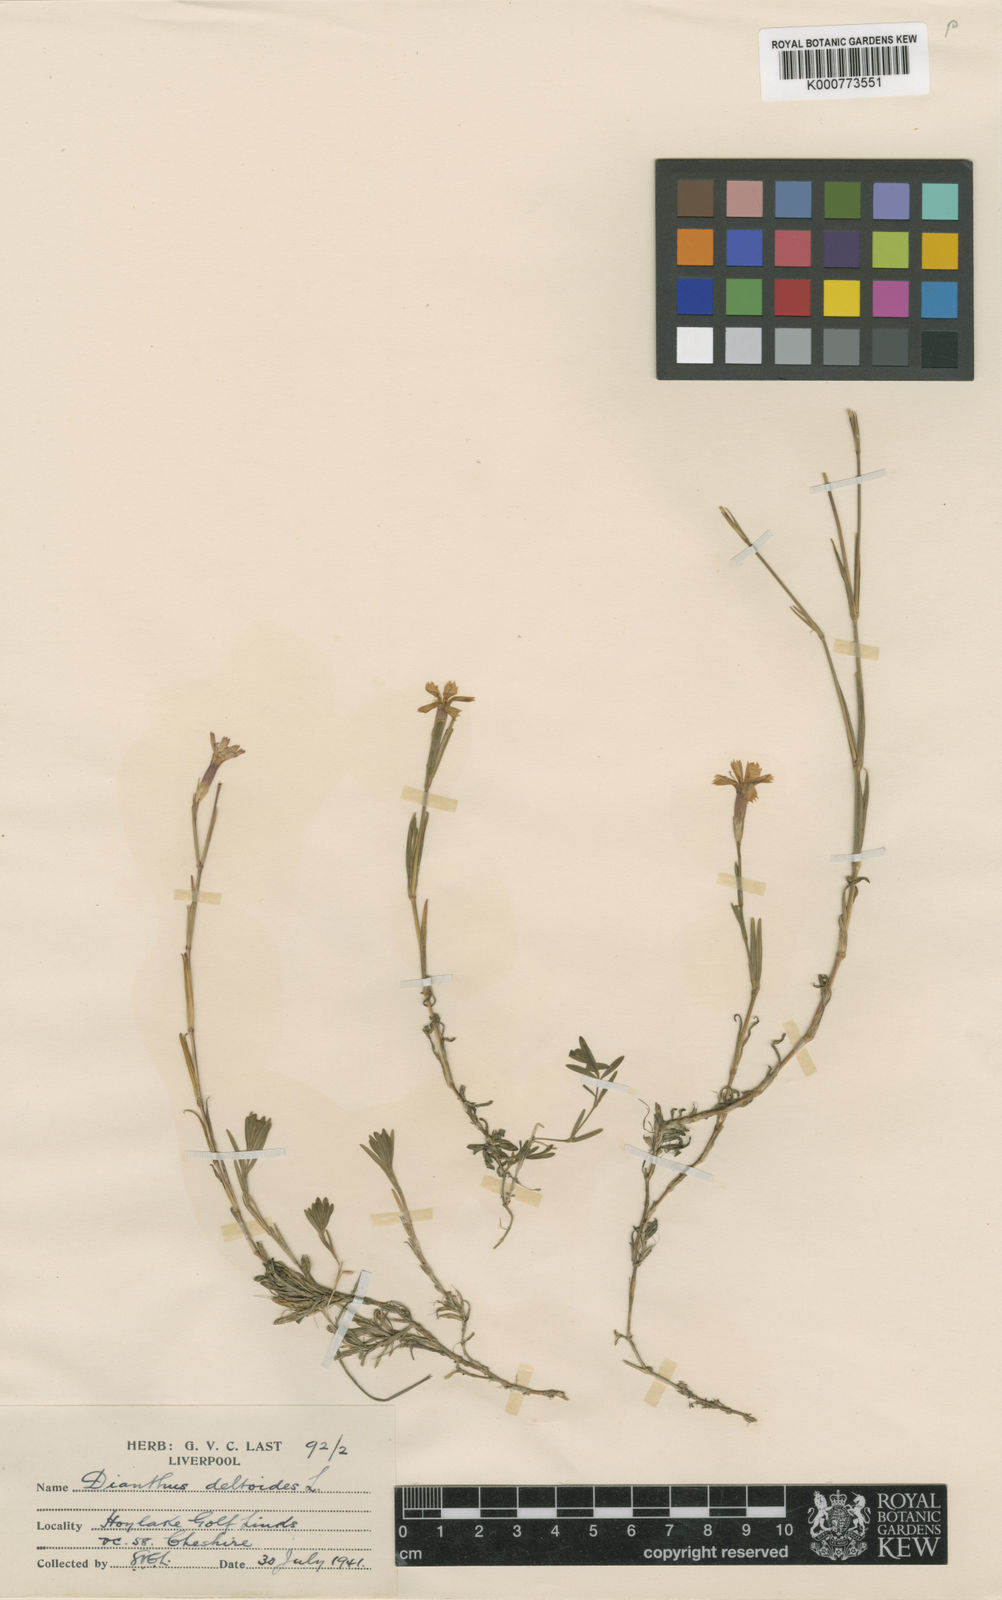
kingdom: Plantae
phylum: Tracheophyta
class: Magnoliopsida
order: Caryophyllales
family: Caryophyllaceae
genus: Dianthus
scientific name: Dianthus deltoides
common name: Maiden pink
